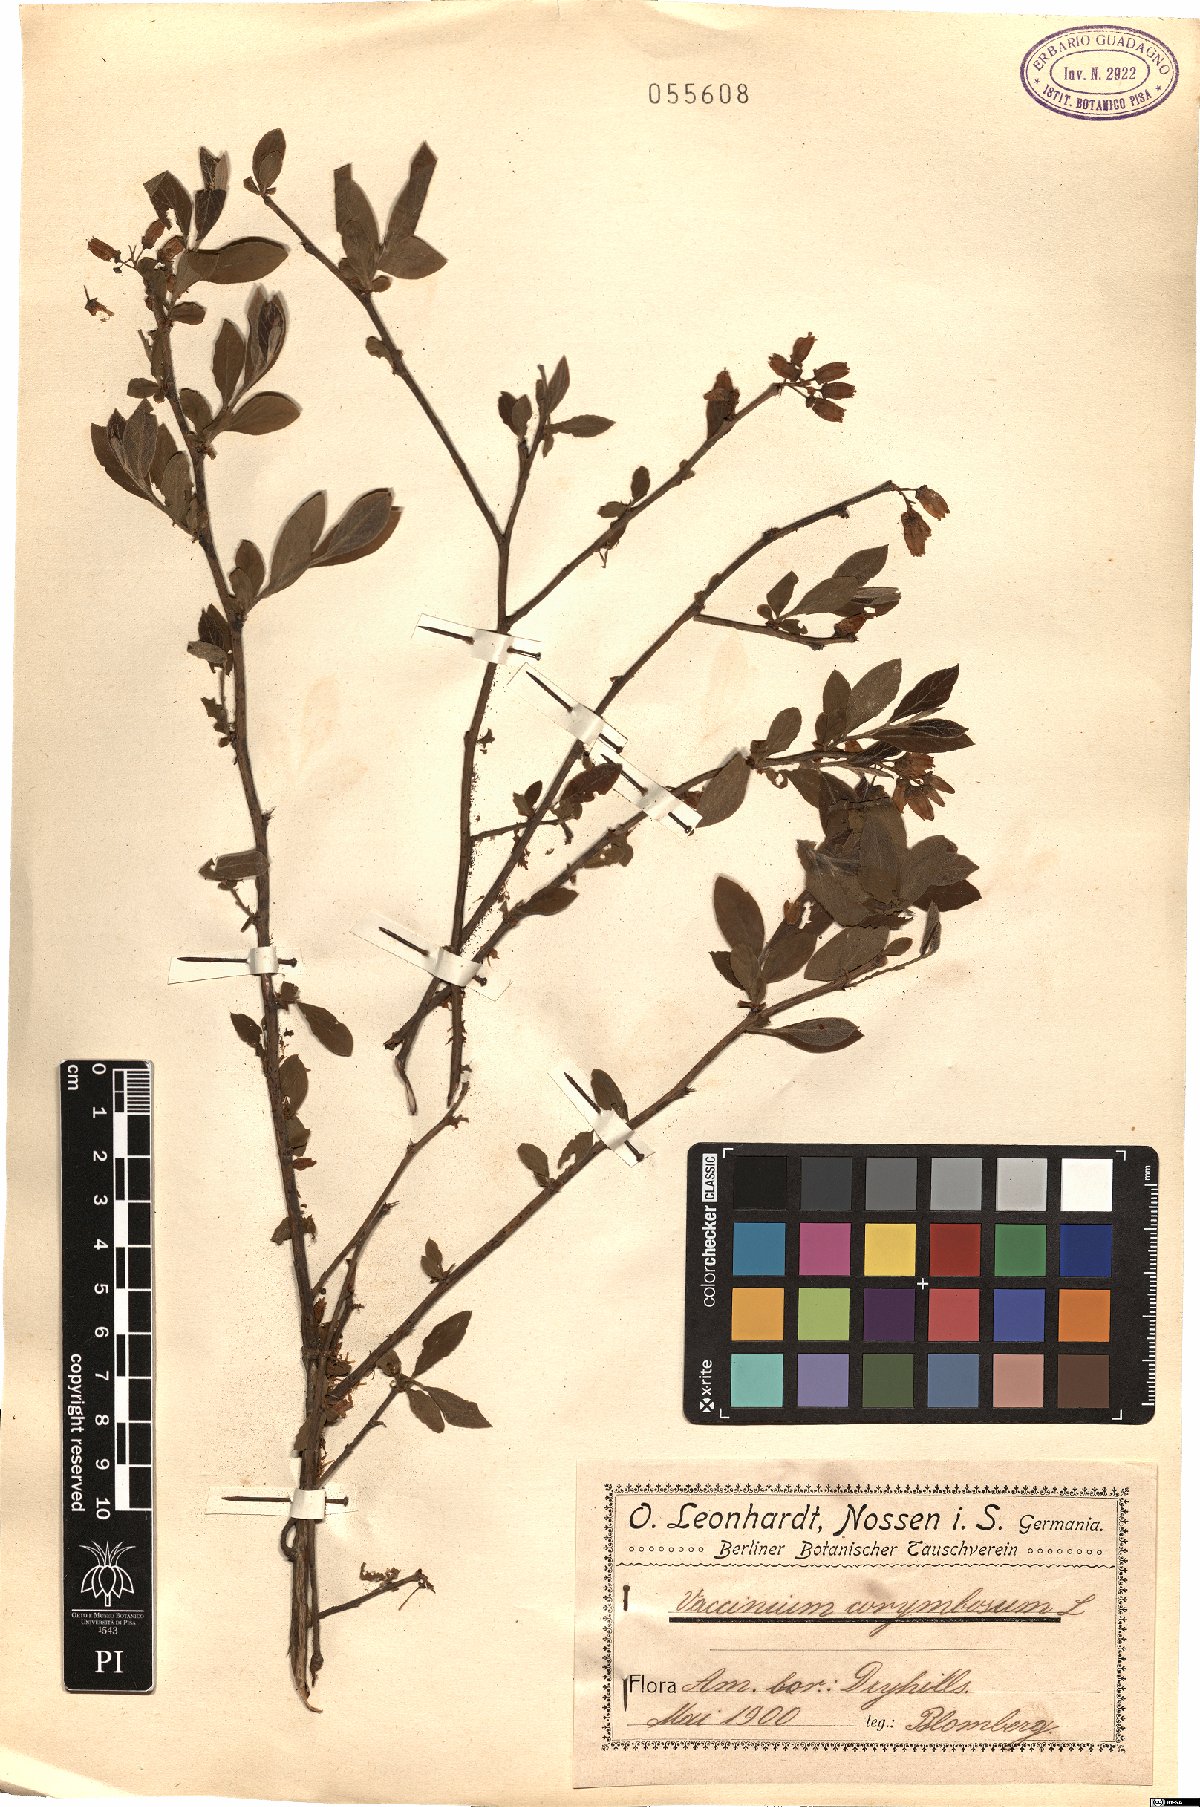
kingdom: Plantae
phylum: Tracheophyta
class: Magnoliopsida
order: Ericales
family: Ericaceae
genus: Vaccinium
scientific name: Vaccinium corymbosum
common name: Blueberry
